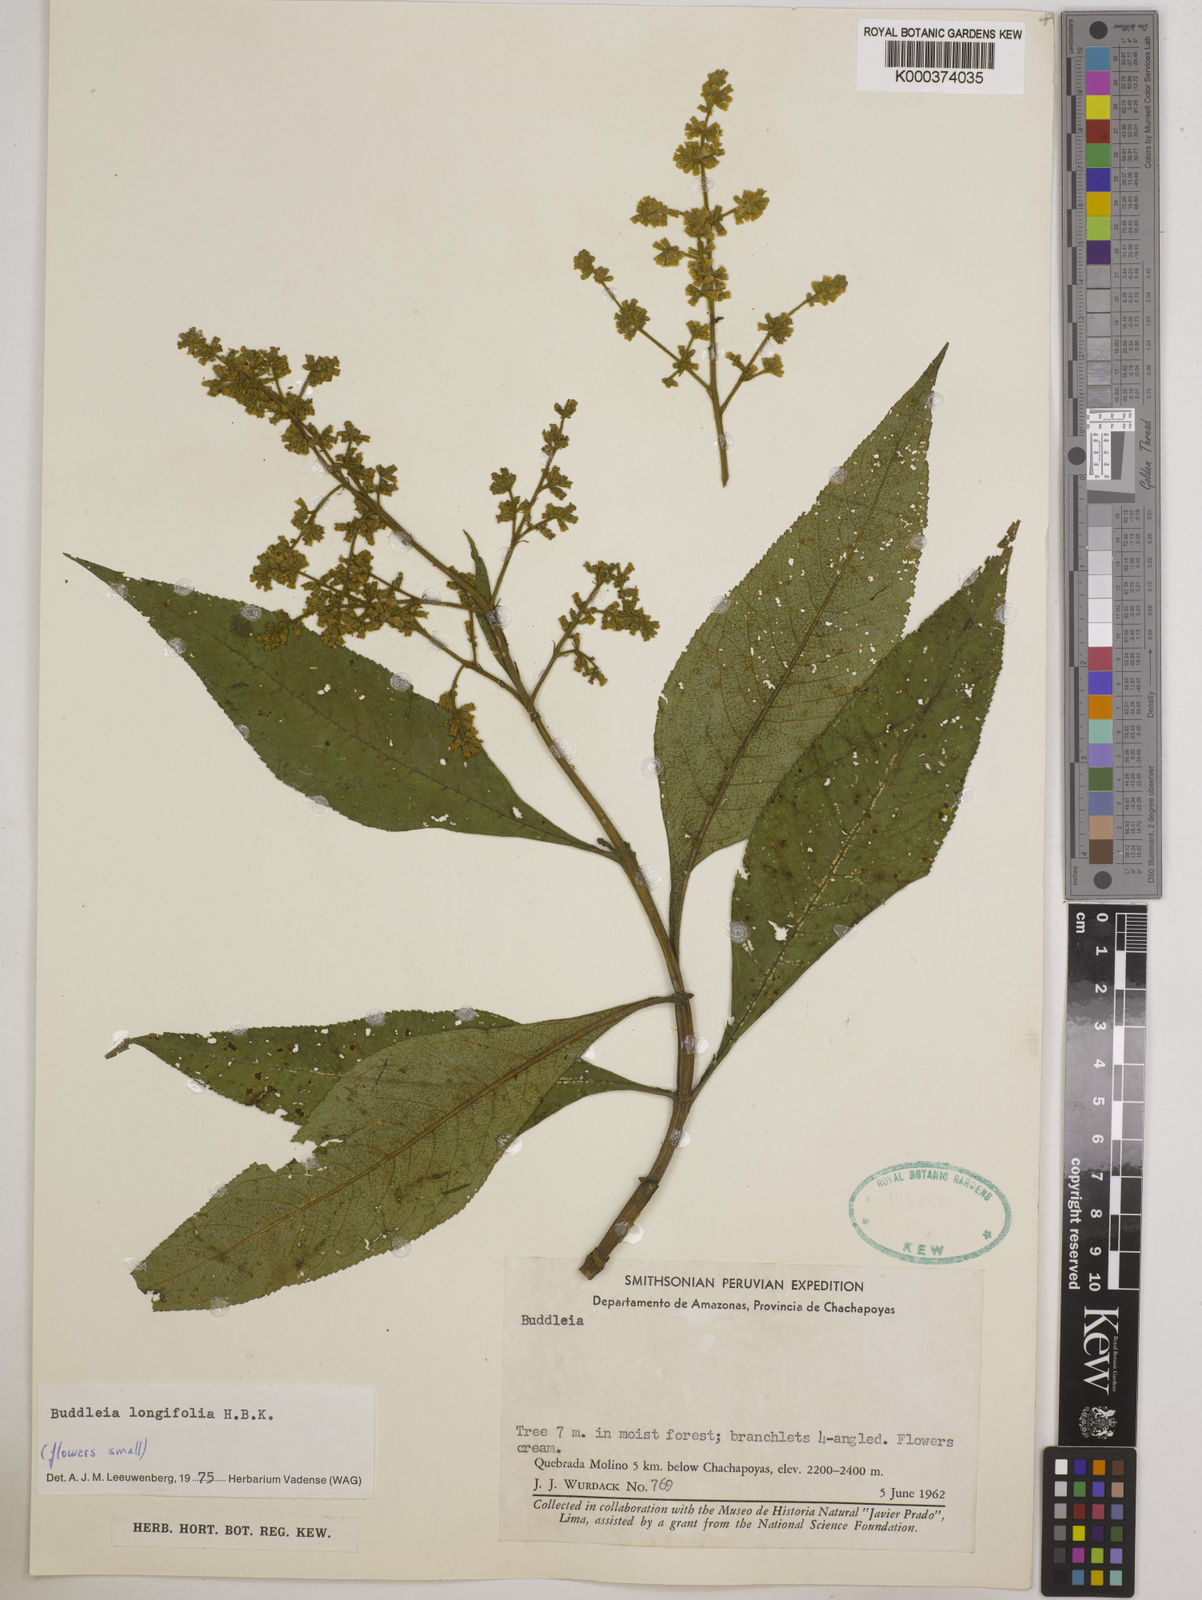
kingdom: Plantae
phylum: Tracheophyta
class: Magnoliopsida
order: Lamiales
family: Scrophulariaceae
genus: Buddleja
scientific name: Buddleja
